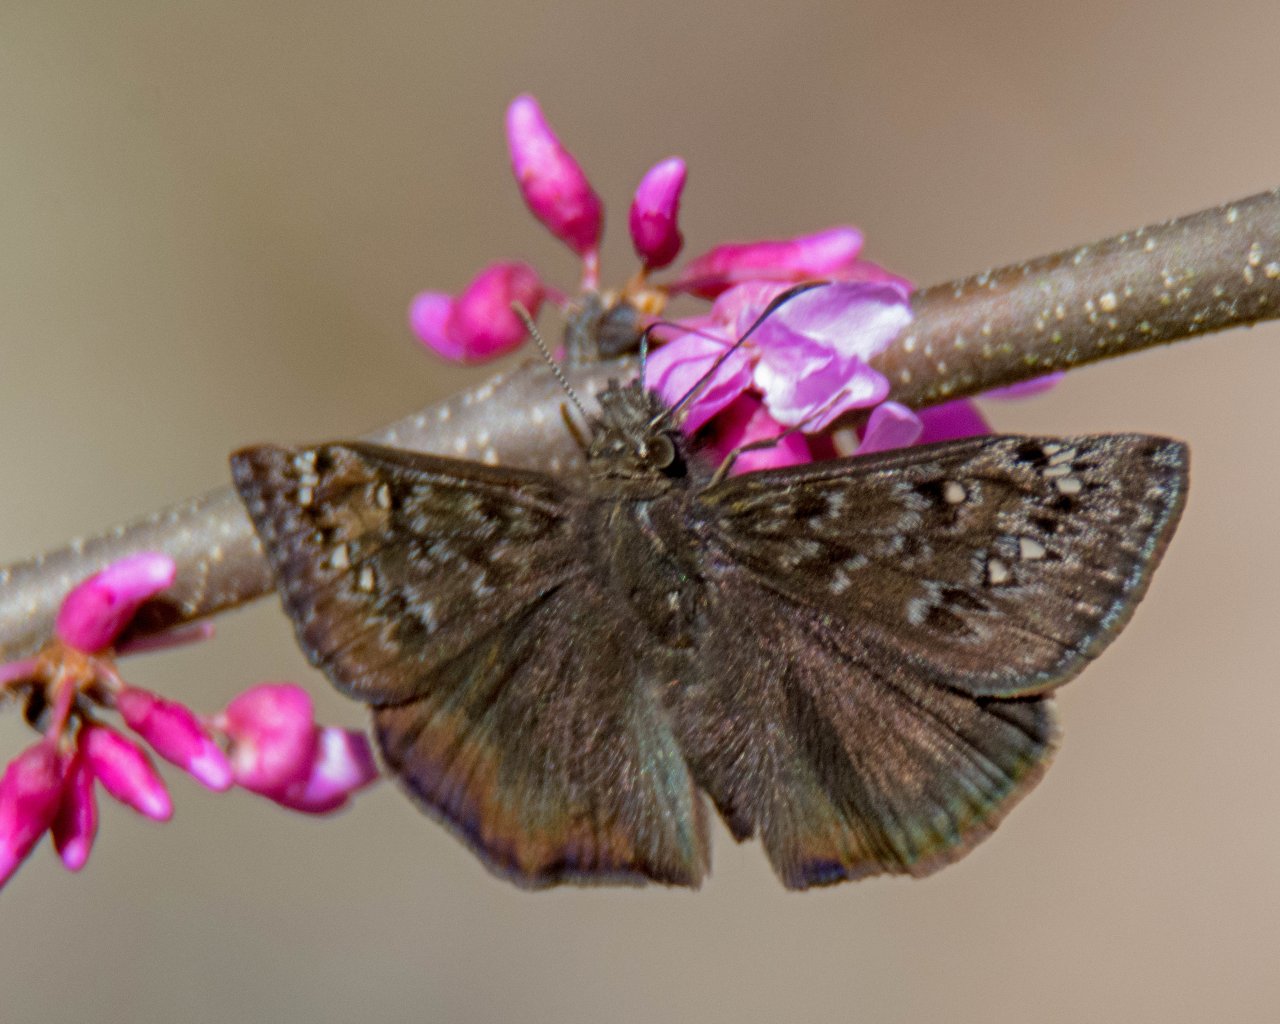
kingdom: Animalia
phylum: Arthropoda
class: Insecta
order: Lepidoptera
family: Hesperiidae
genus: Gesta
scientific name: Gesta
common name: Juvenal's Duskywing
